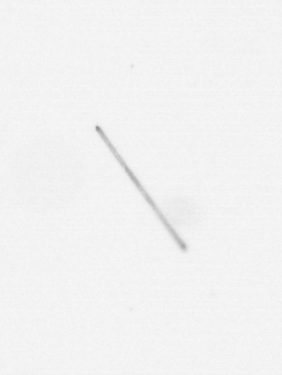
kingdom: Chromista
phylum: Ochrophyta
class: Bacillariophyceae
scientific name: Bacillariophyceae
